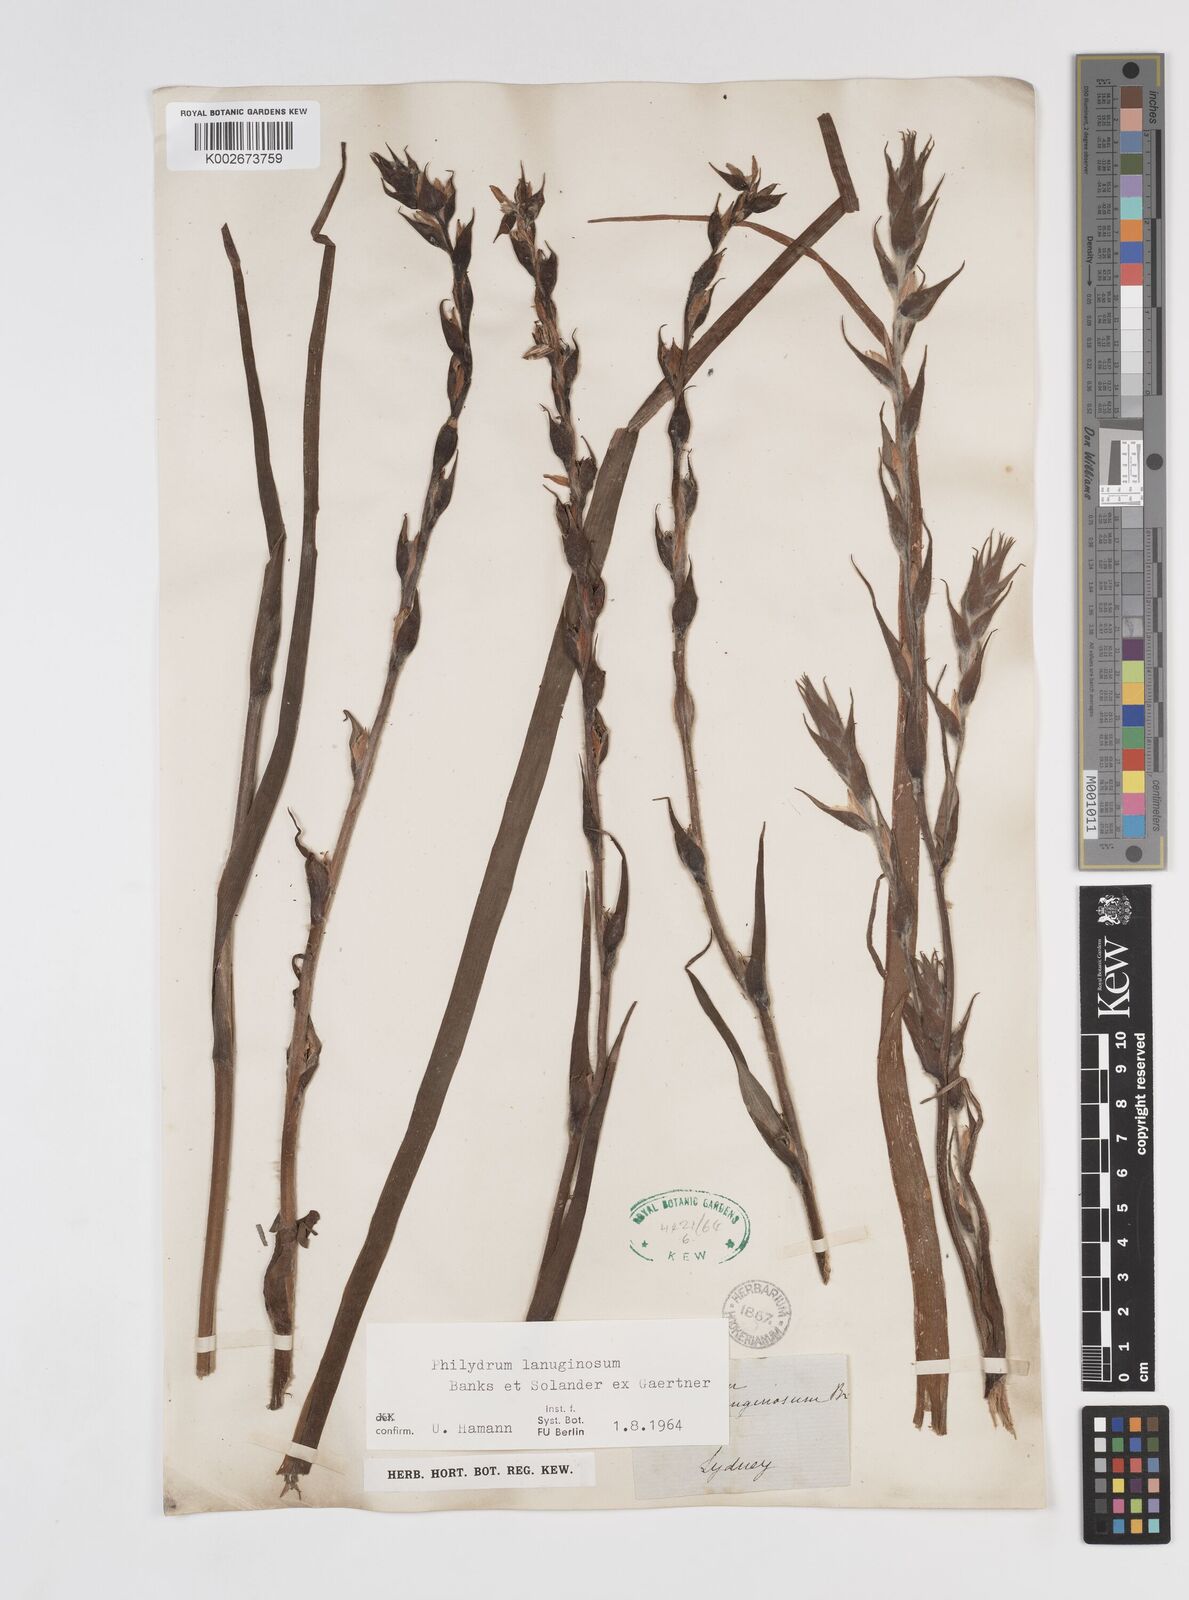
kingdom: Plantae
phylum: Tracheophyta
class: Liliopsida
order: Commelinales
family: Philydraceae
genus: Philydrum
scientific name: Philydrum lanuginosum
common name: Woolly frog's mouth
